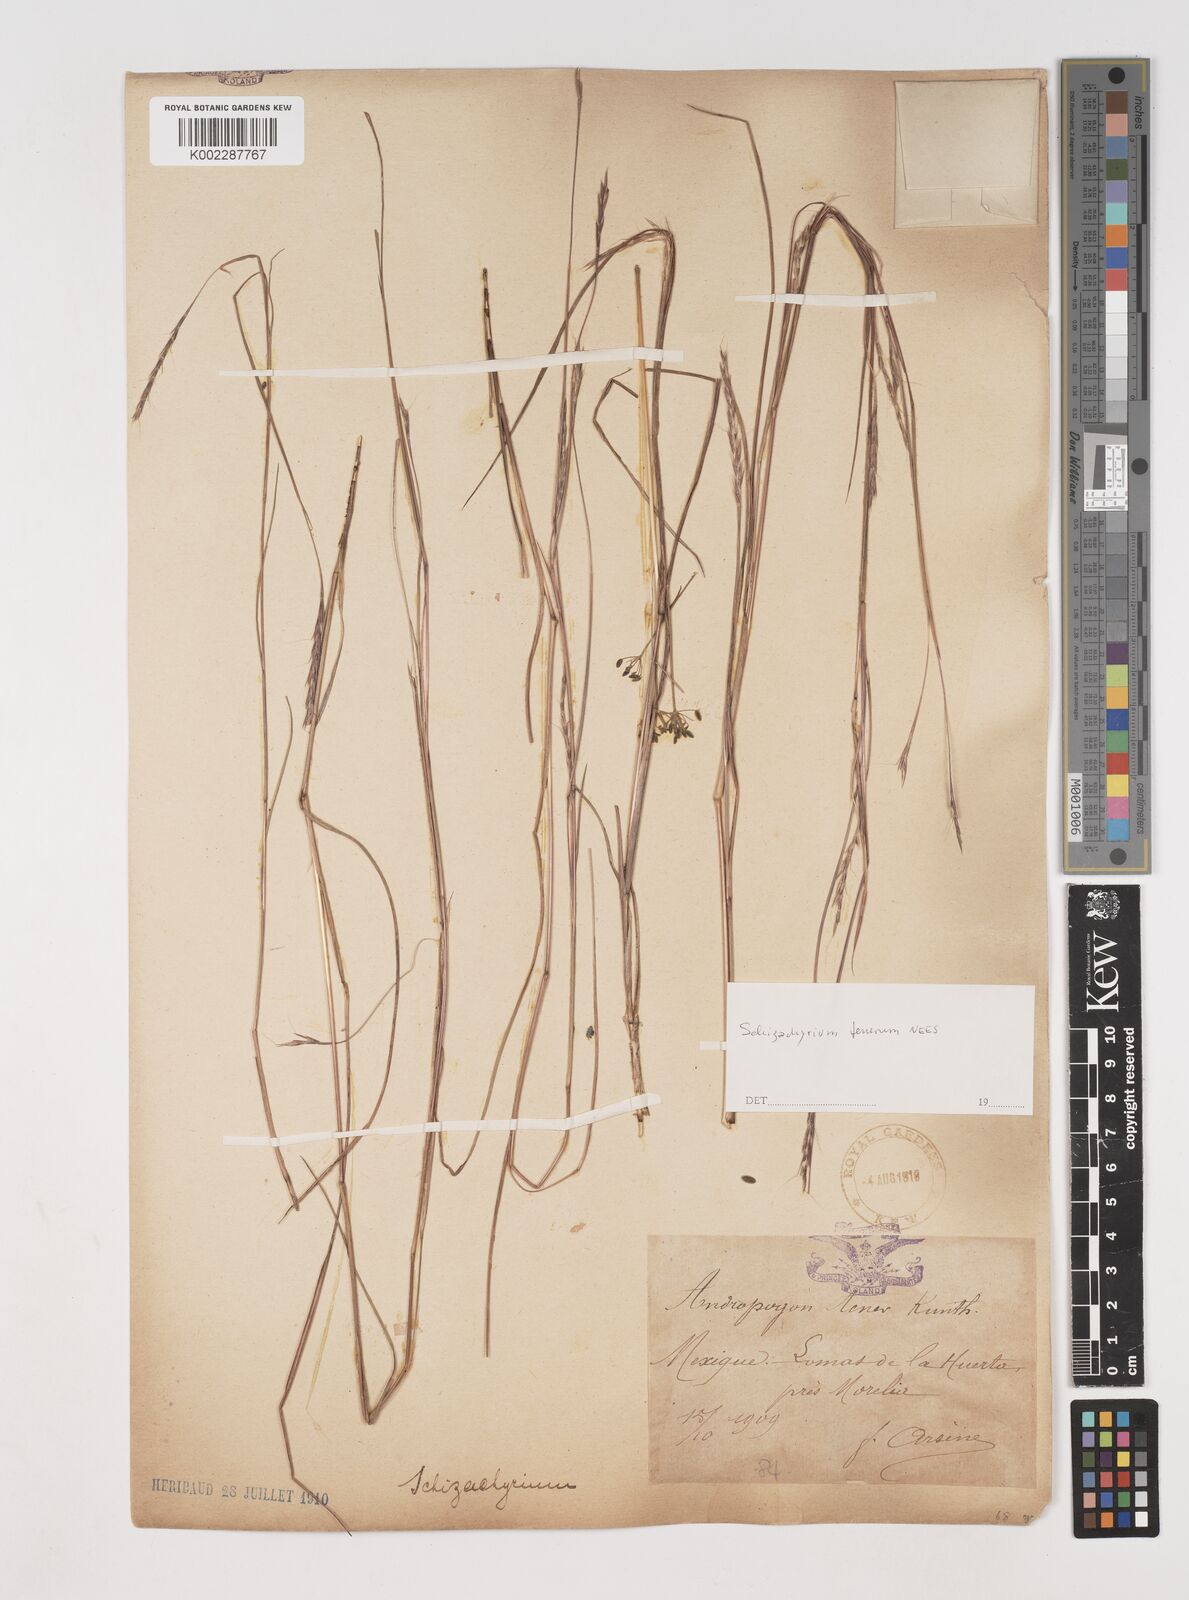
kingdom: Plantae
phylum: Tracheophyta
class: Liliopsida
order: Poales
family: Poaceae
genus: Andropogon
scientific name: Andropogon tener
